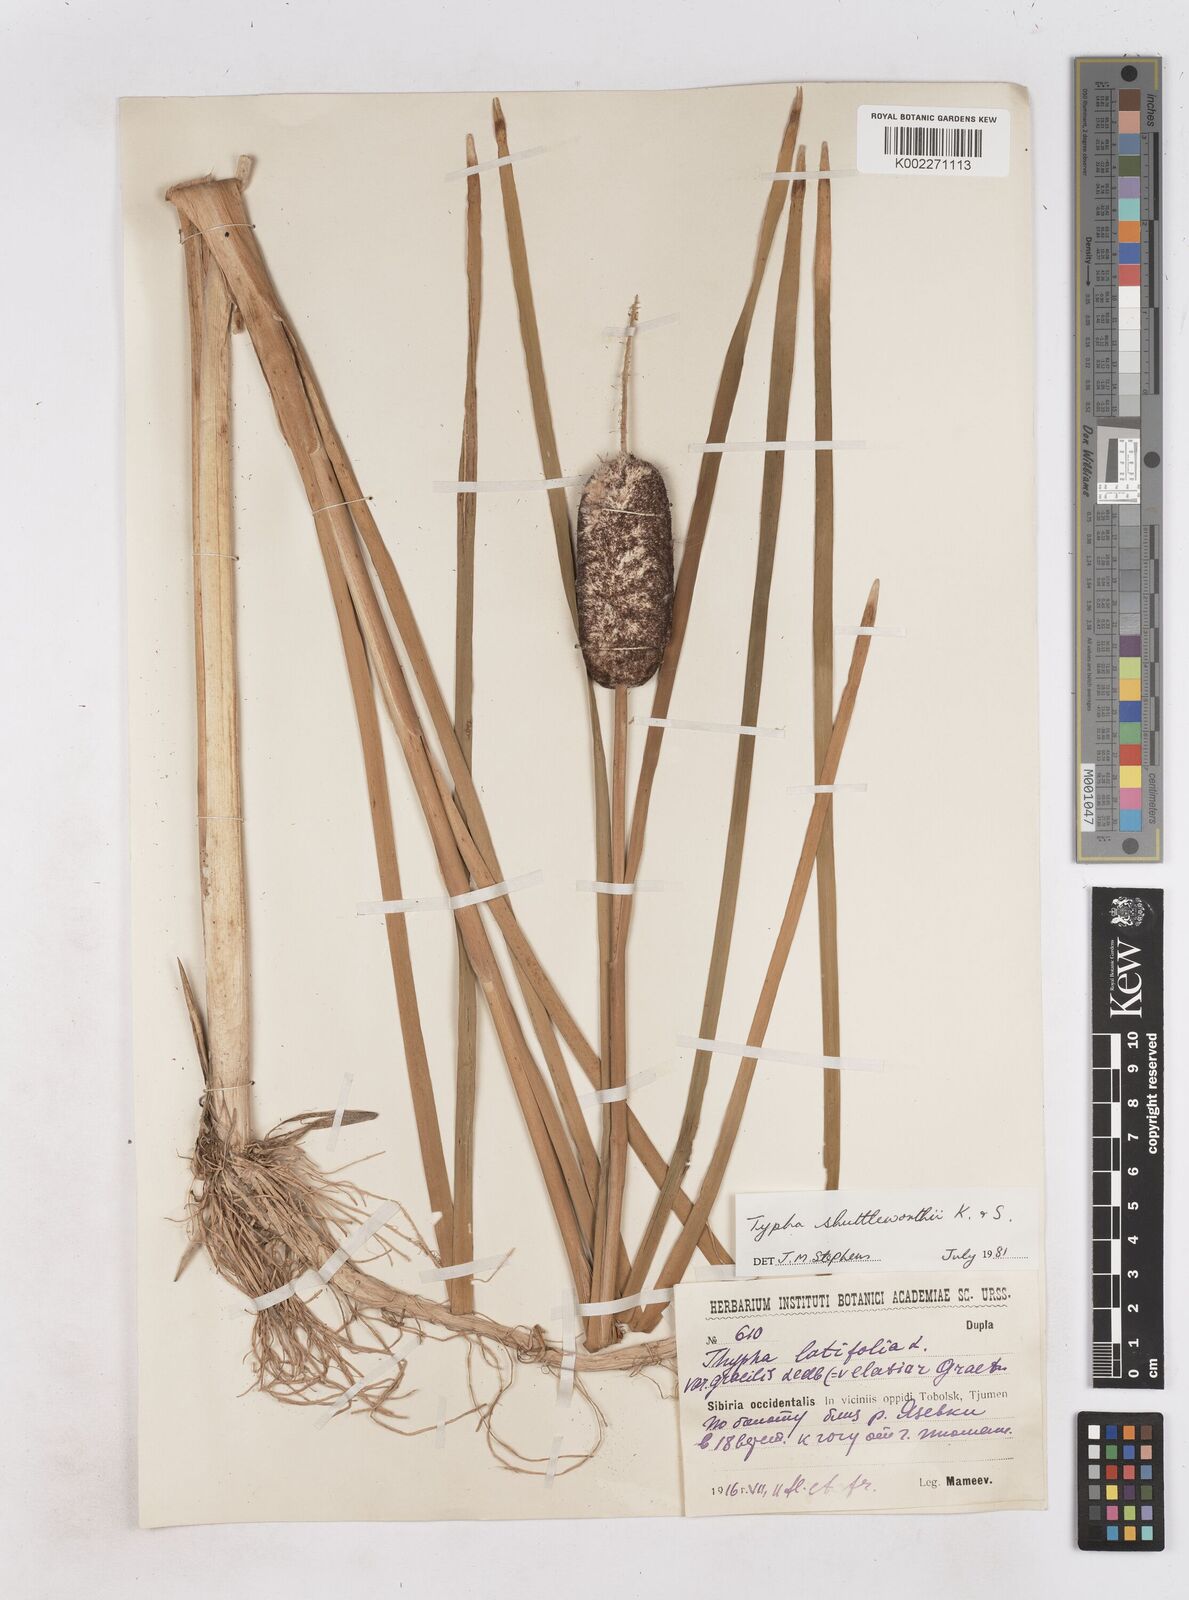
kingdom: Plantae
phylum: Tracheophyta
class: Liliopsida
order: Poales
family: Typhaceae
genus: Typha
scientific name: Typha shuttleworthii
